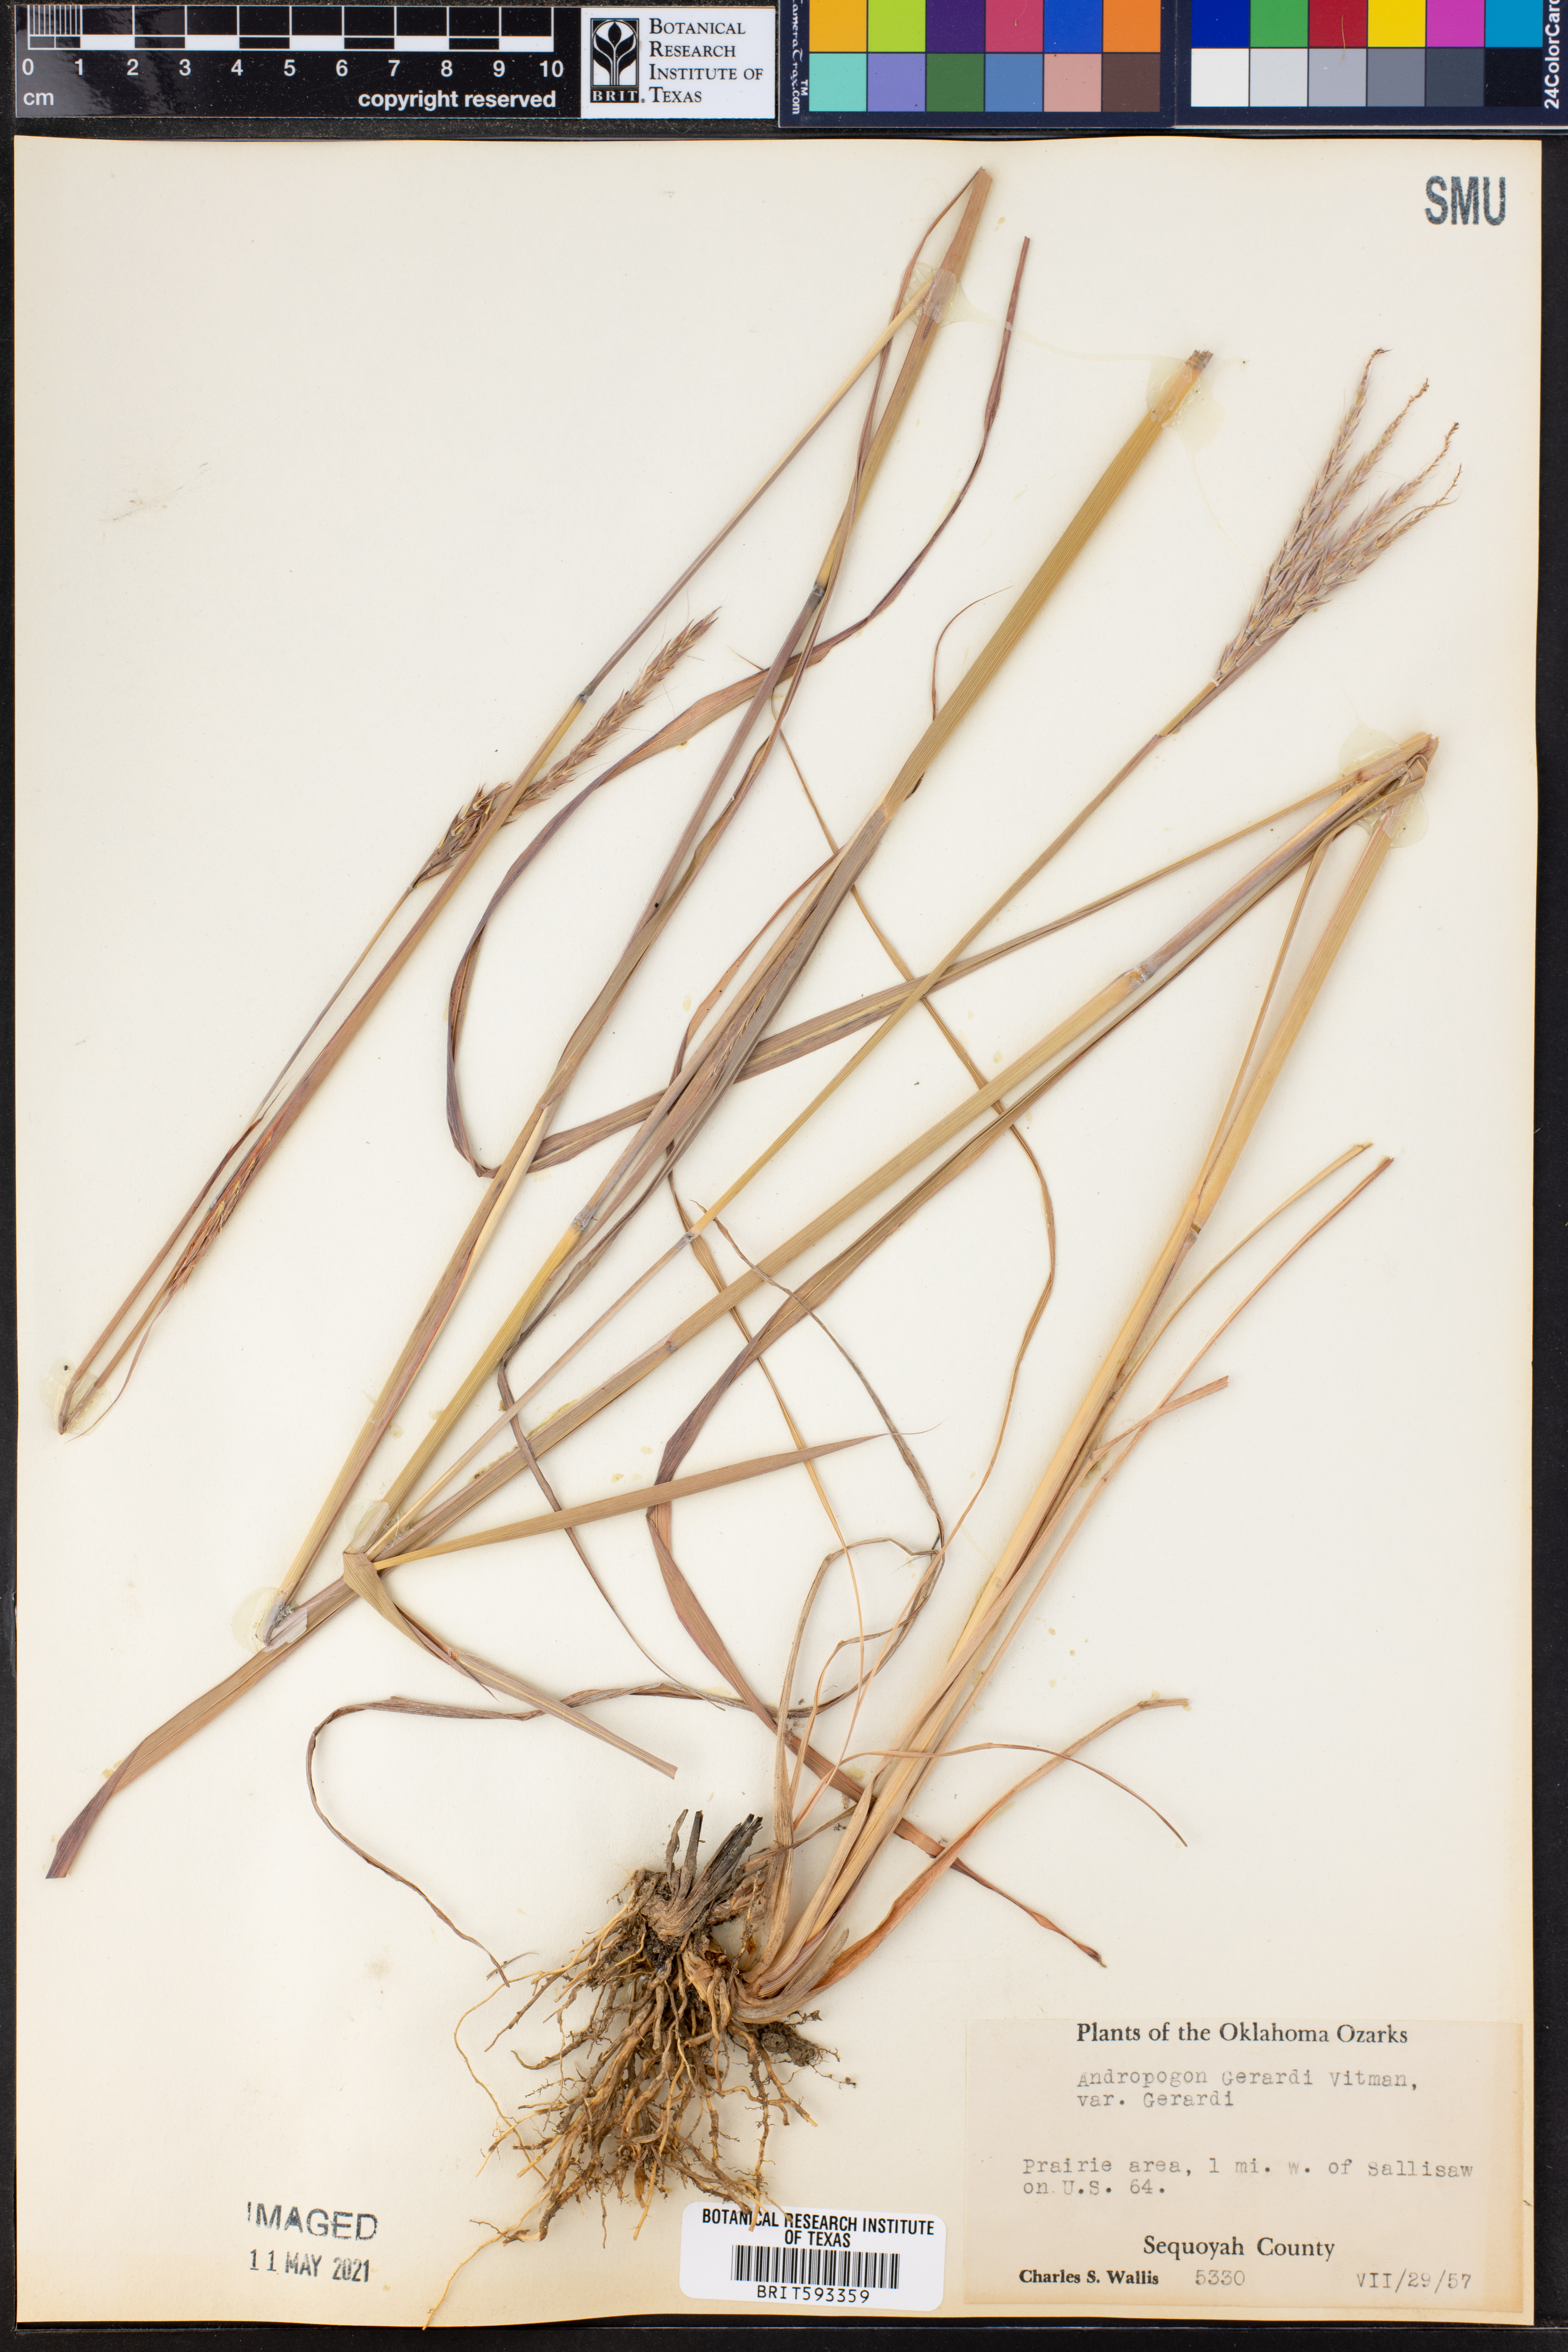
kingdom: Plantae
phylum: Tracheophyta
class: Liliopsida
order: Poales
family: Poaceae
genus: Andropogon
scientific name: Andropogon gerardi
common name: Big bluestem
